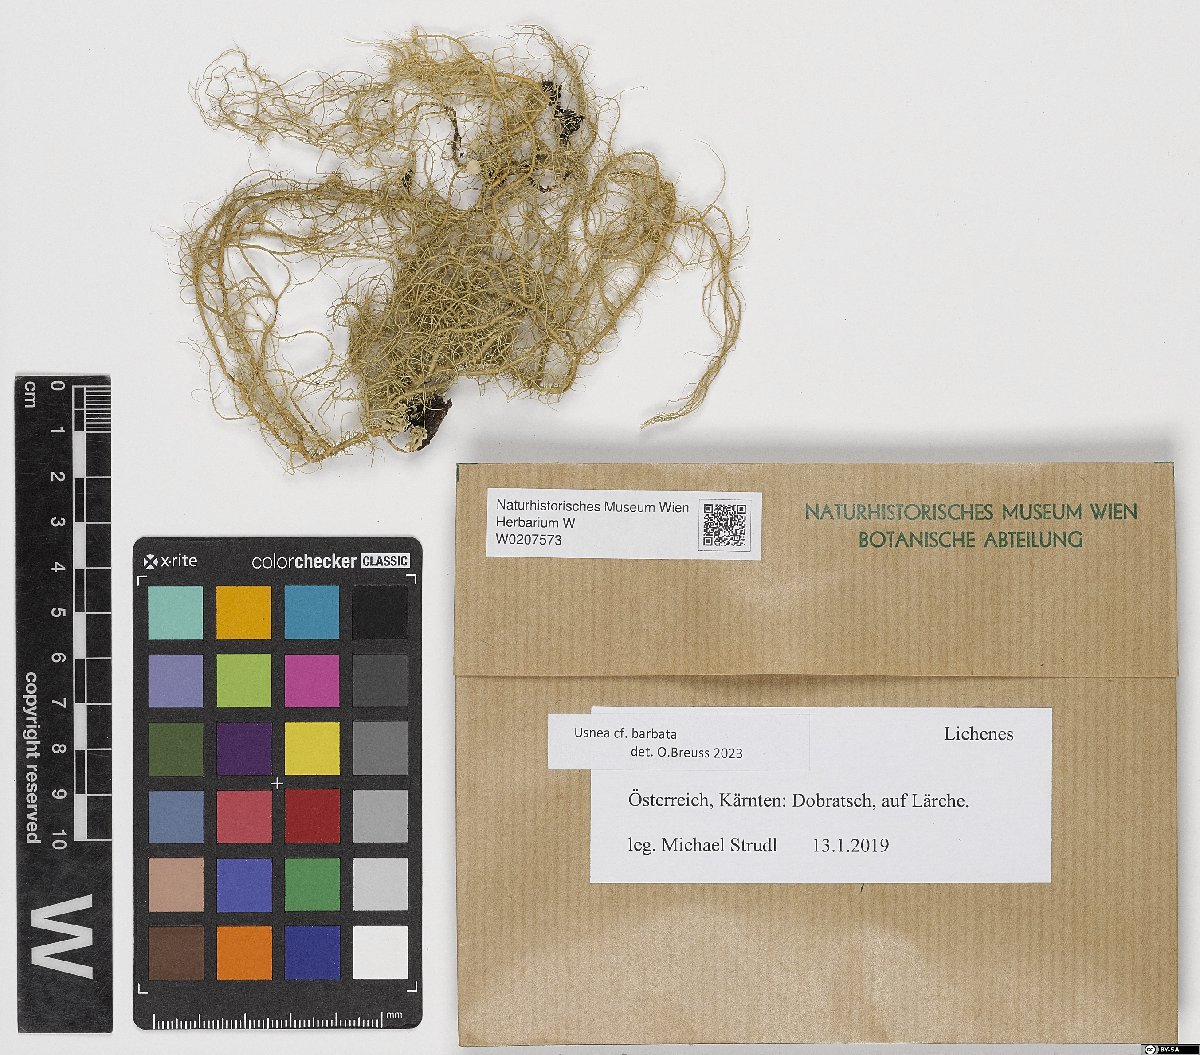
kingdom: Fungi
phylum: Ascomycota
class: Lecanoromycetes
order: Lecanorales
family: Parmeliaceae
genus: Usnea
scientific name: Usnea barbata
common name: Old man's beard lichen
